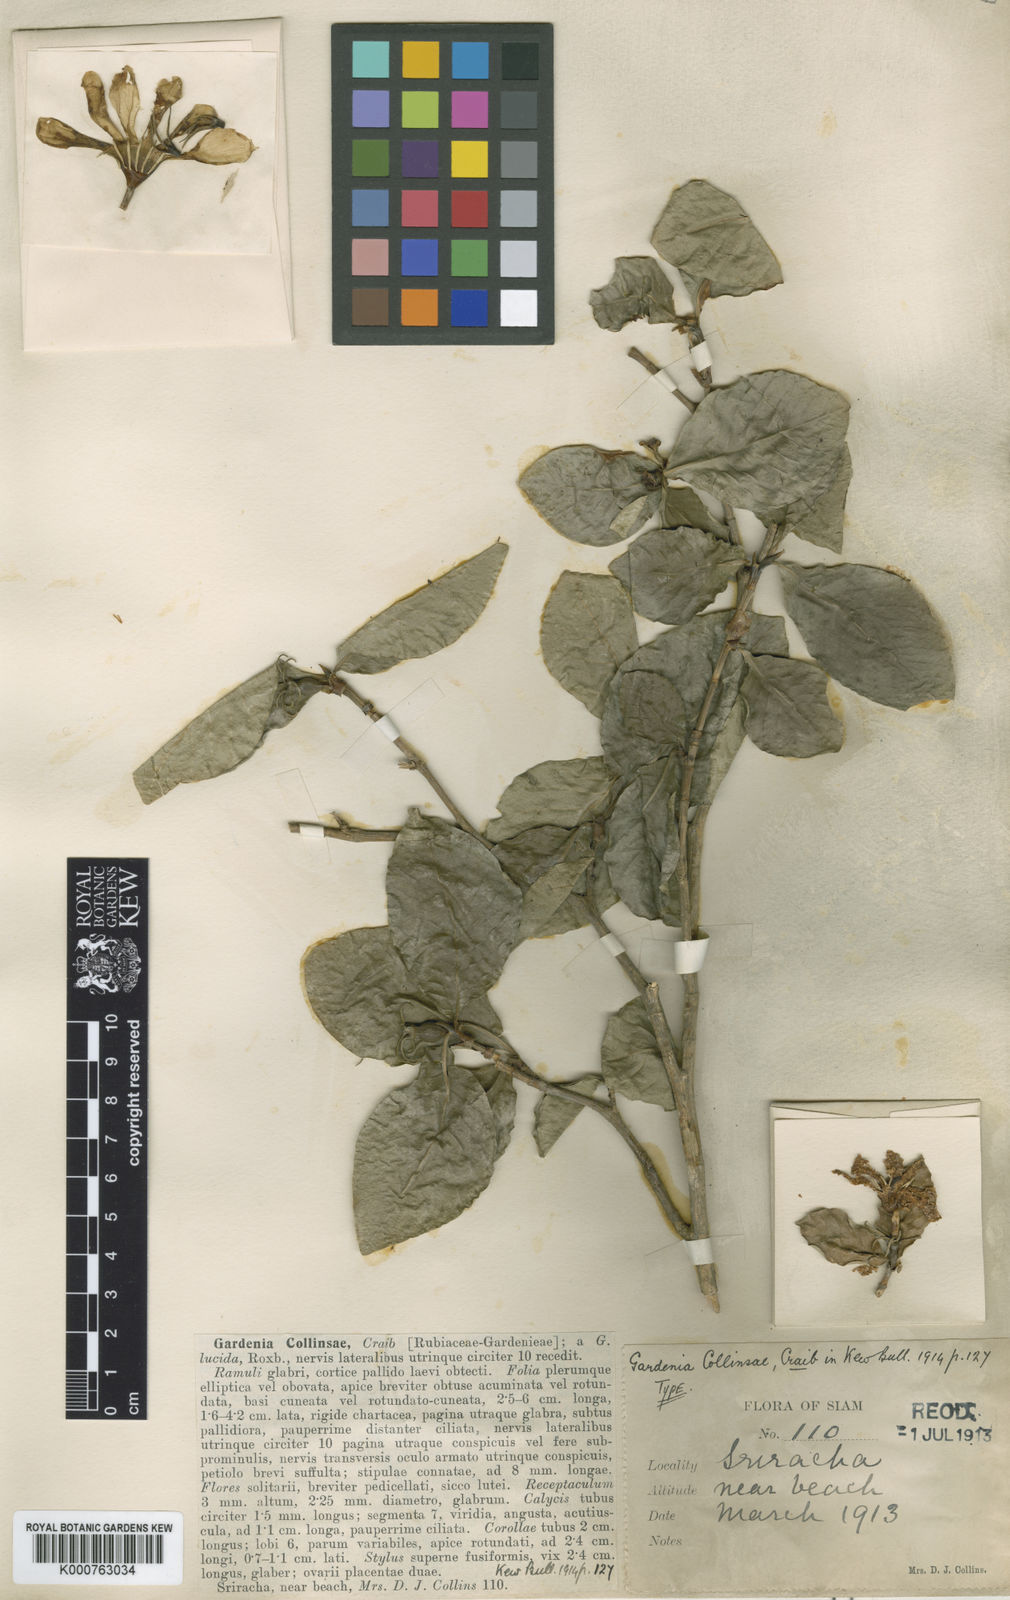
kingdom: Plantae
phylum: Tracheophyta
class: Magnoliopsida
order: Gentianales
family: Rubiaceae
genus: Gardenia
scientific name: Gardenia collinsiae
